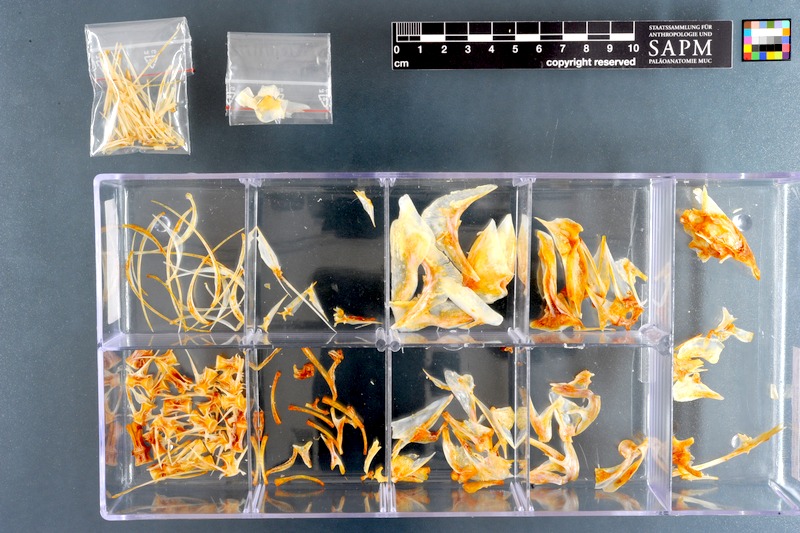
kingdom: Animalia
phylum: Chordata
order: Perciformes
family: Emmelichthyidae
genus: Emmelichthys
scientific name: Emmelichthys nitidus
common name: Cape bonnetmouth
